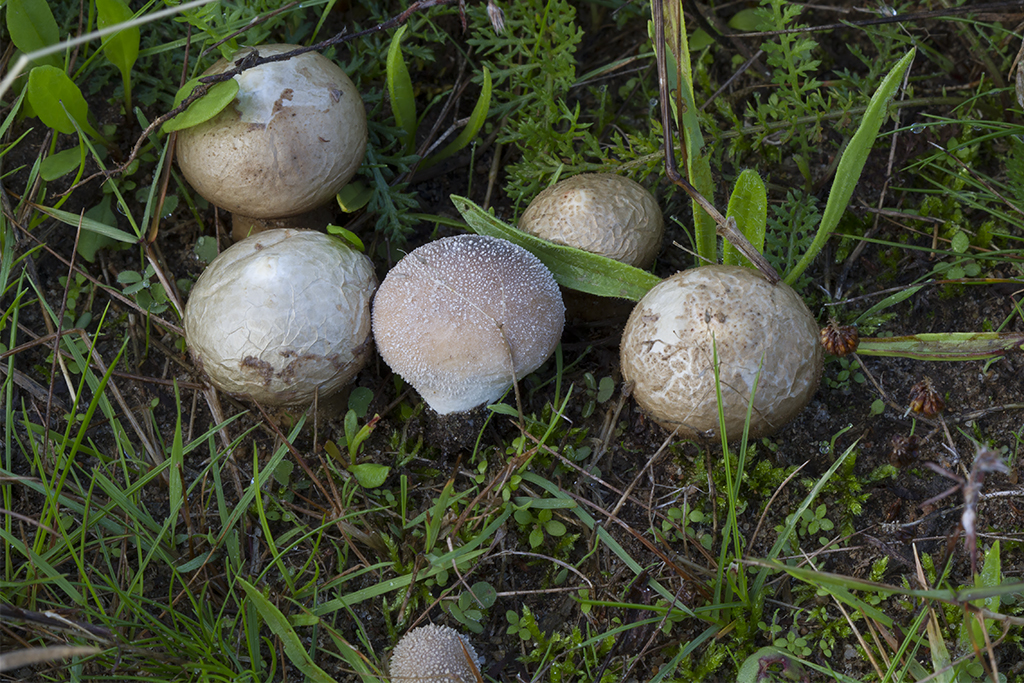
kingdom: Fungi
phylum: Basidiomycota
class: Agaricomycetes
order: Agaricales
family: Lycoperdaceae
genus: Lycoperdon
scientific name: Lycoperdon lividum
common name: mark-støvbold
